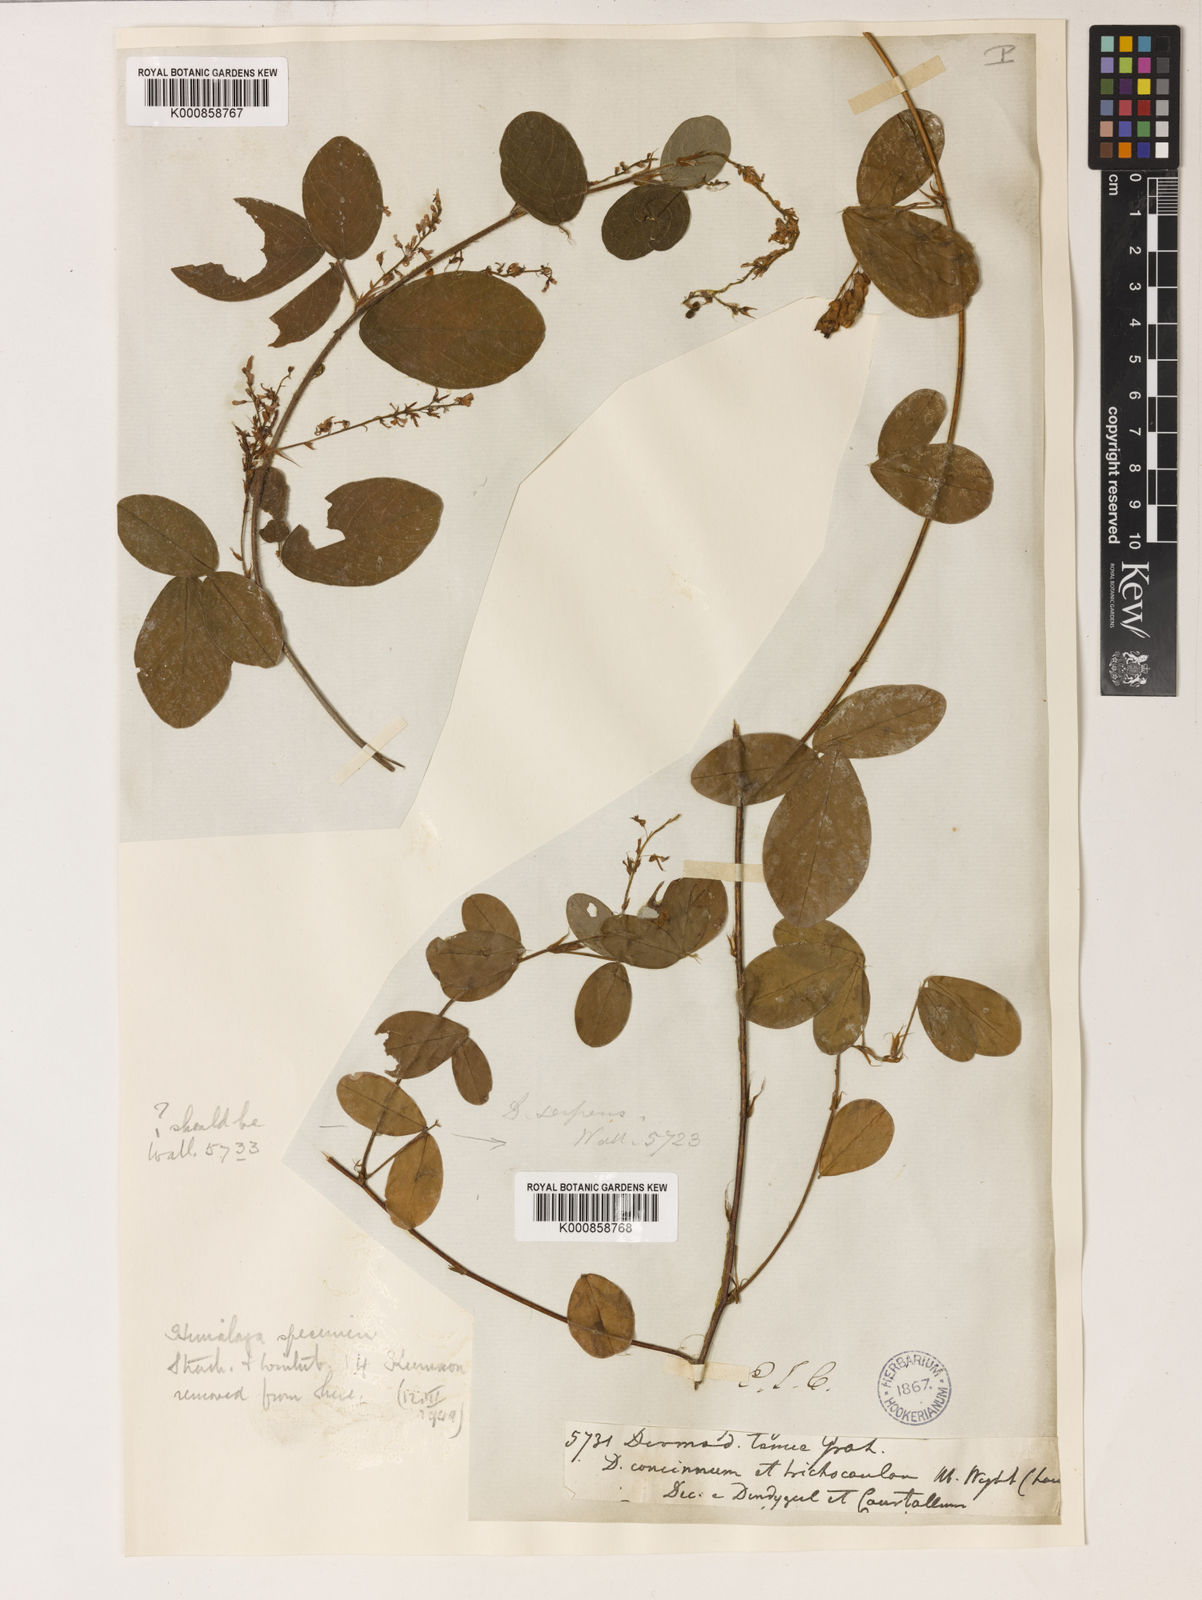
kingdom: Plantae
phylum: Tracheophyta
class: Magnoliopsida
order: Fabales
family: Fabaceae
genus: Grona
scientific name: Grona heterocarpos
